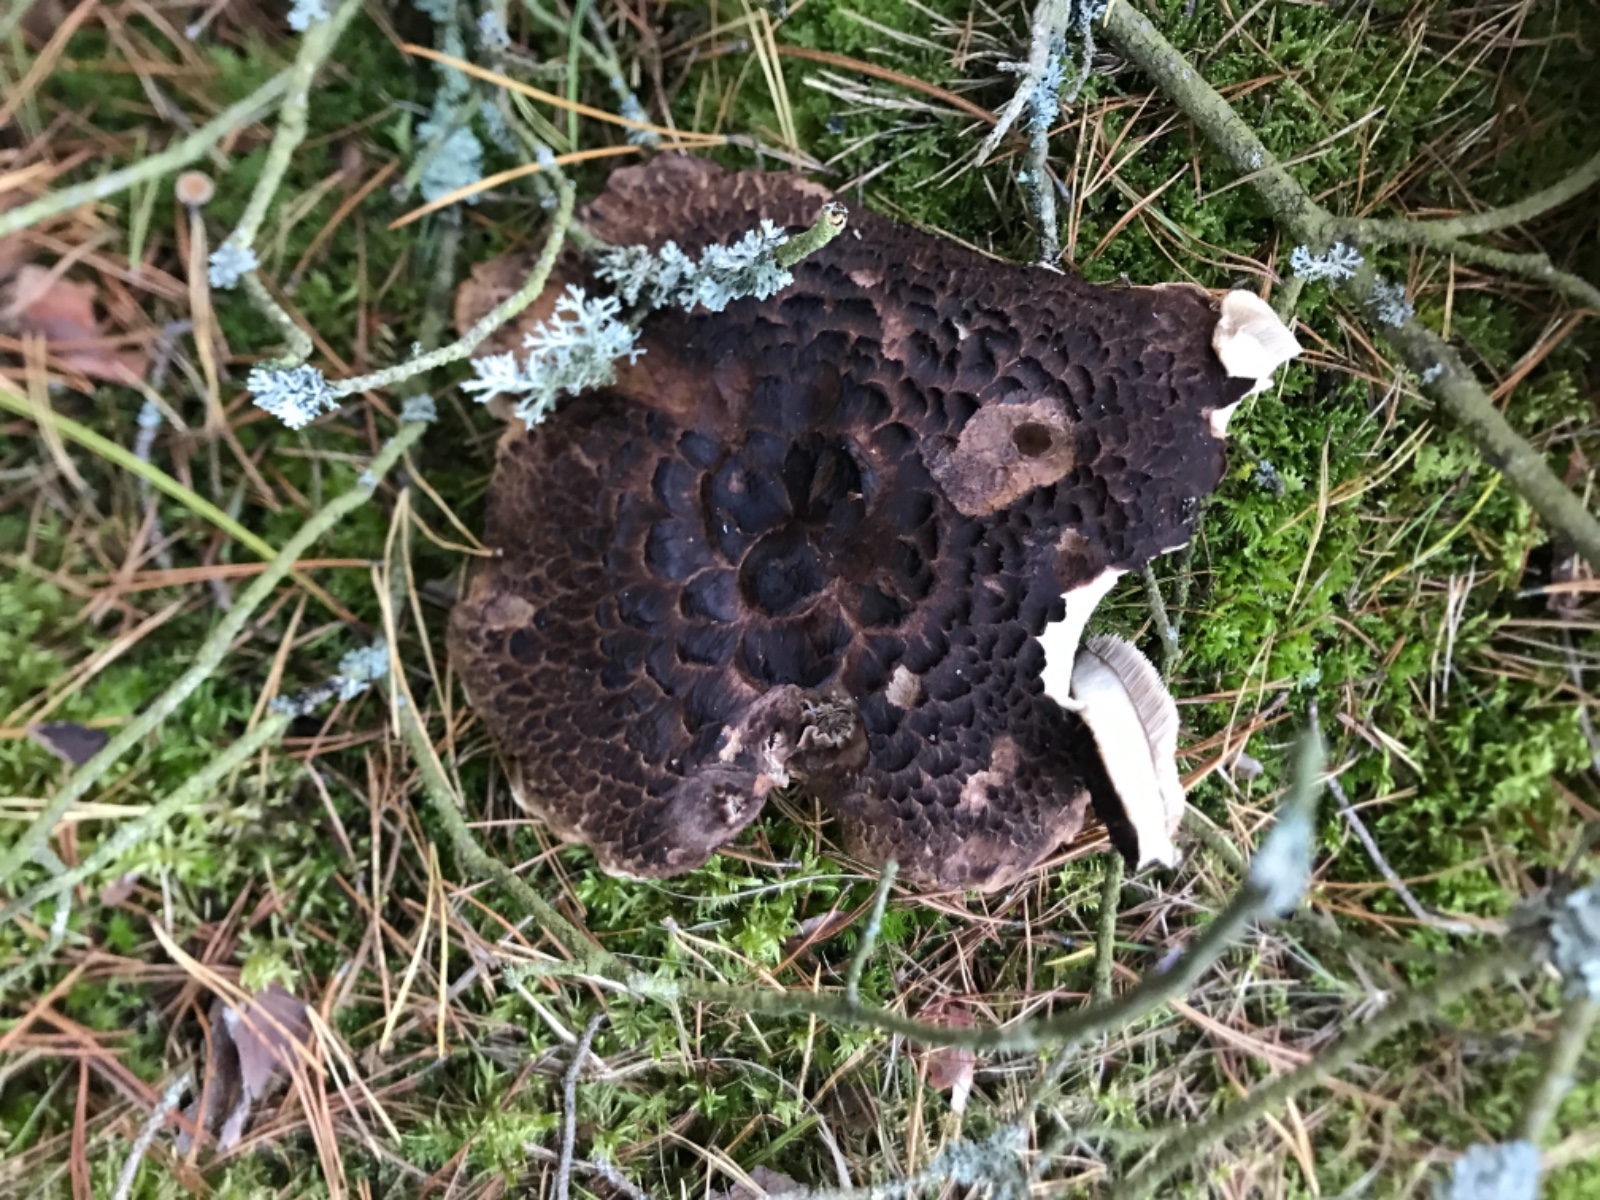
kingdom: Fungi
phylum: Basidiomycota
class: Agaricomycetes
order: Thelephorales
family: Bankeraceae
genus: Sarcodon
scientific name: Sarcodon squamosus
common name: småskællet kødpigsvamp
